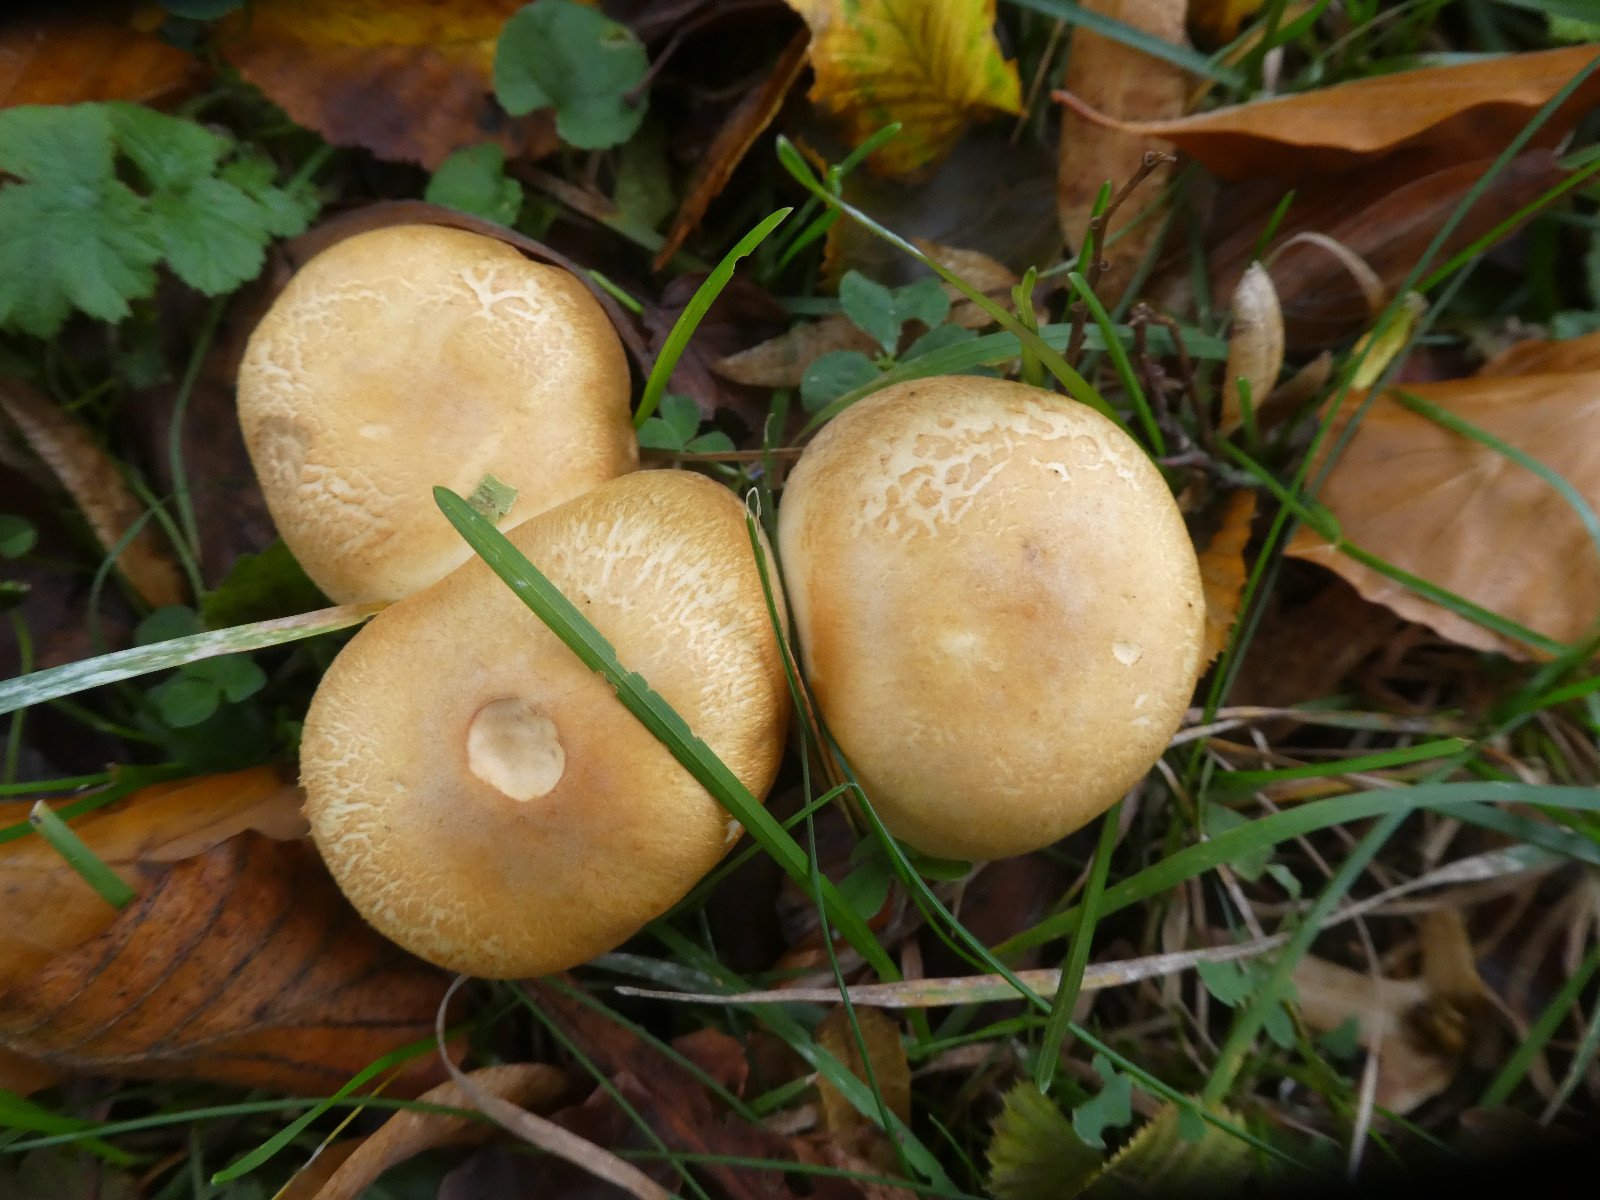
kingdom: Fungi
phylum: Basidiomycota
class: Agaricomycetes
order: Agaricales
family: Agaricaceae
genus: Agaricus
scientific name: Agaricus depauperatus
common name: finskællet champignon
